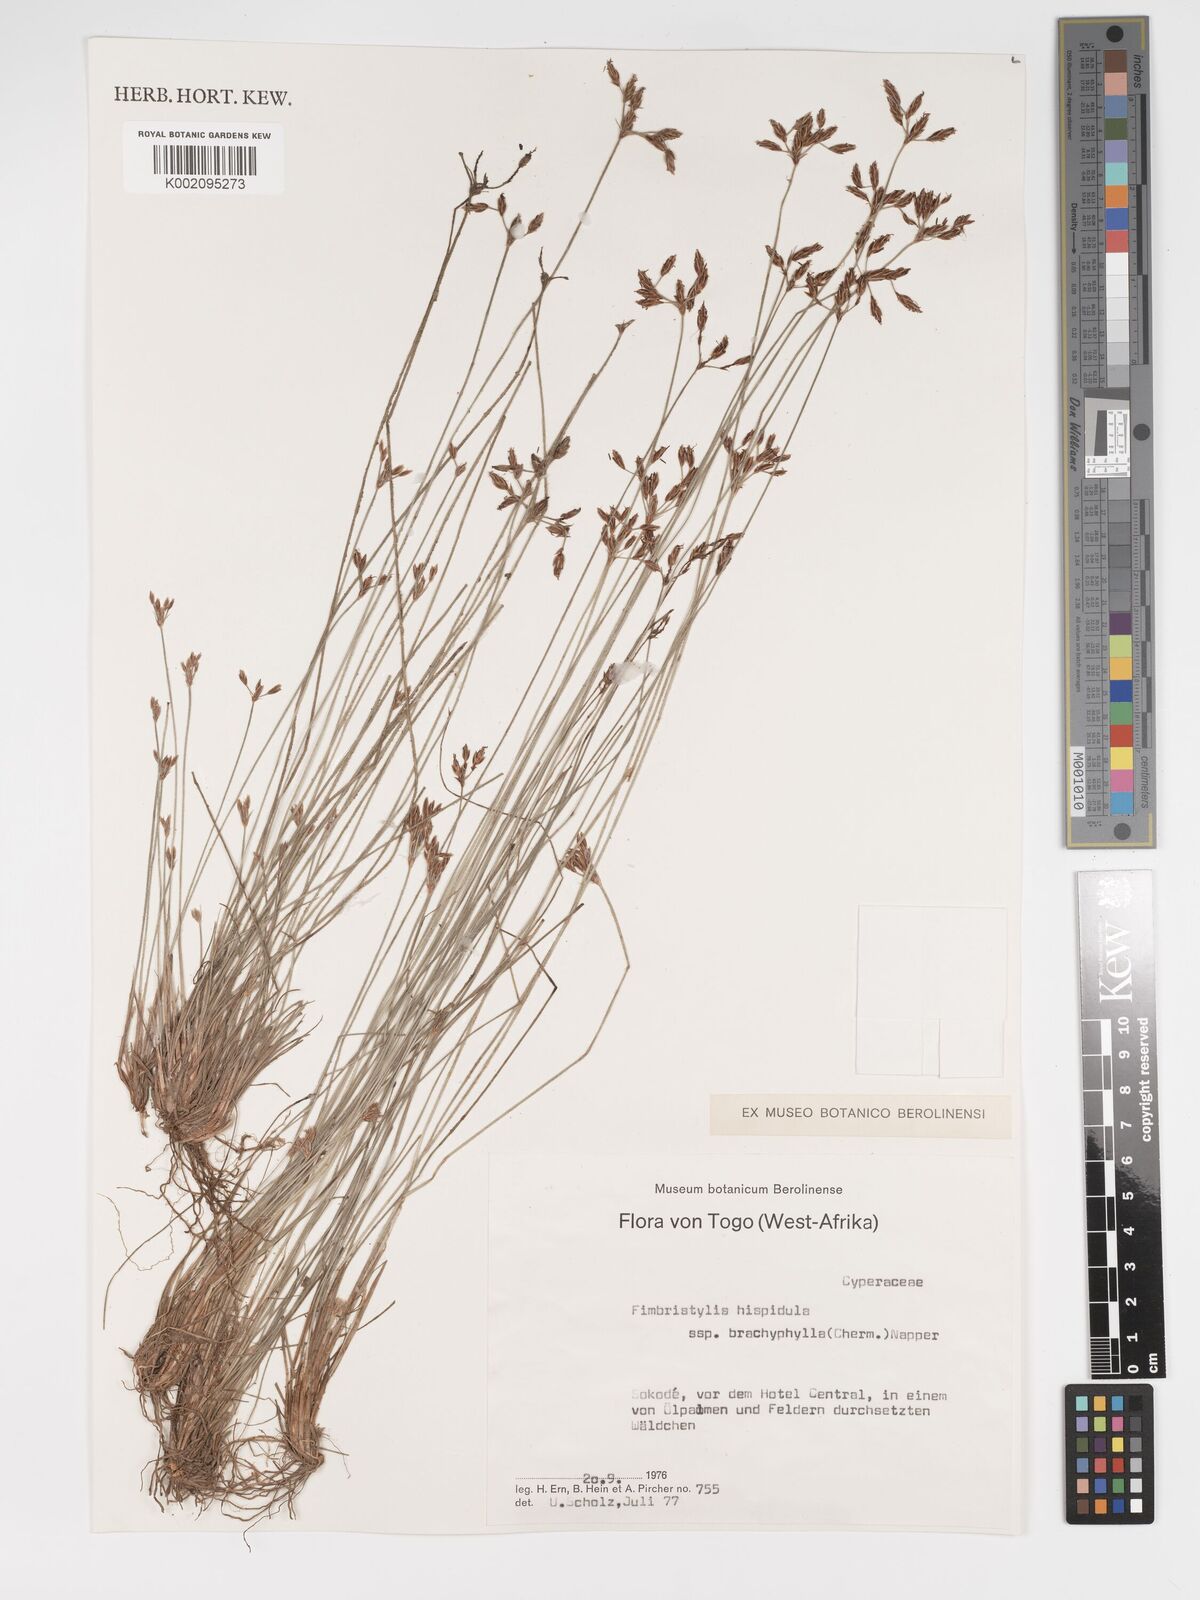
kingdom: Plantae
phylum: Tracheophyta
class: Liliopsida
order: Poales
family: Cyperaceae
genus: Bulbostylis
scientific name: Bulbostylis hispidula
